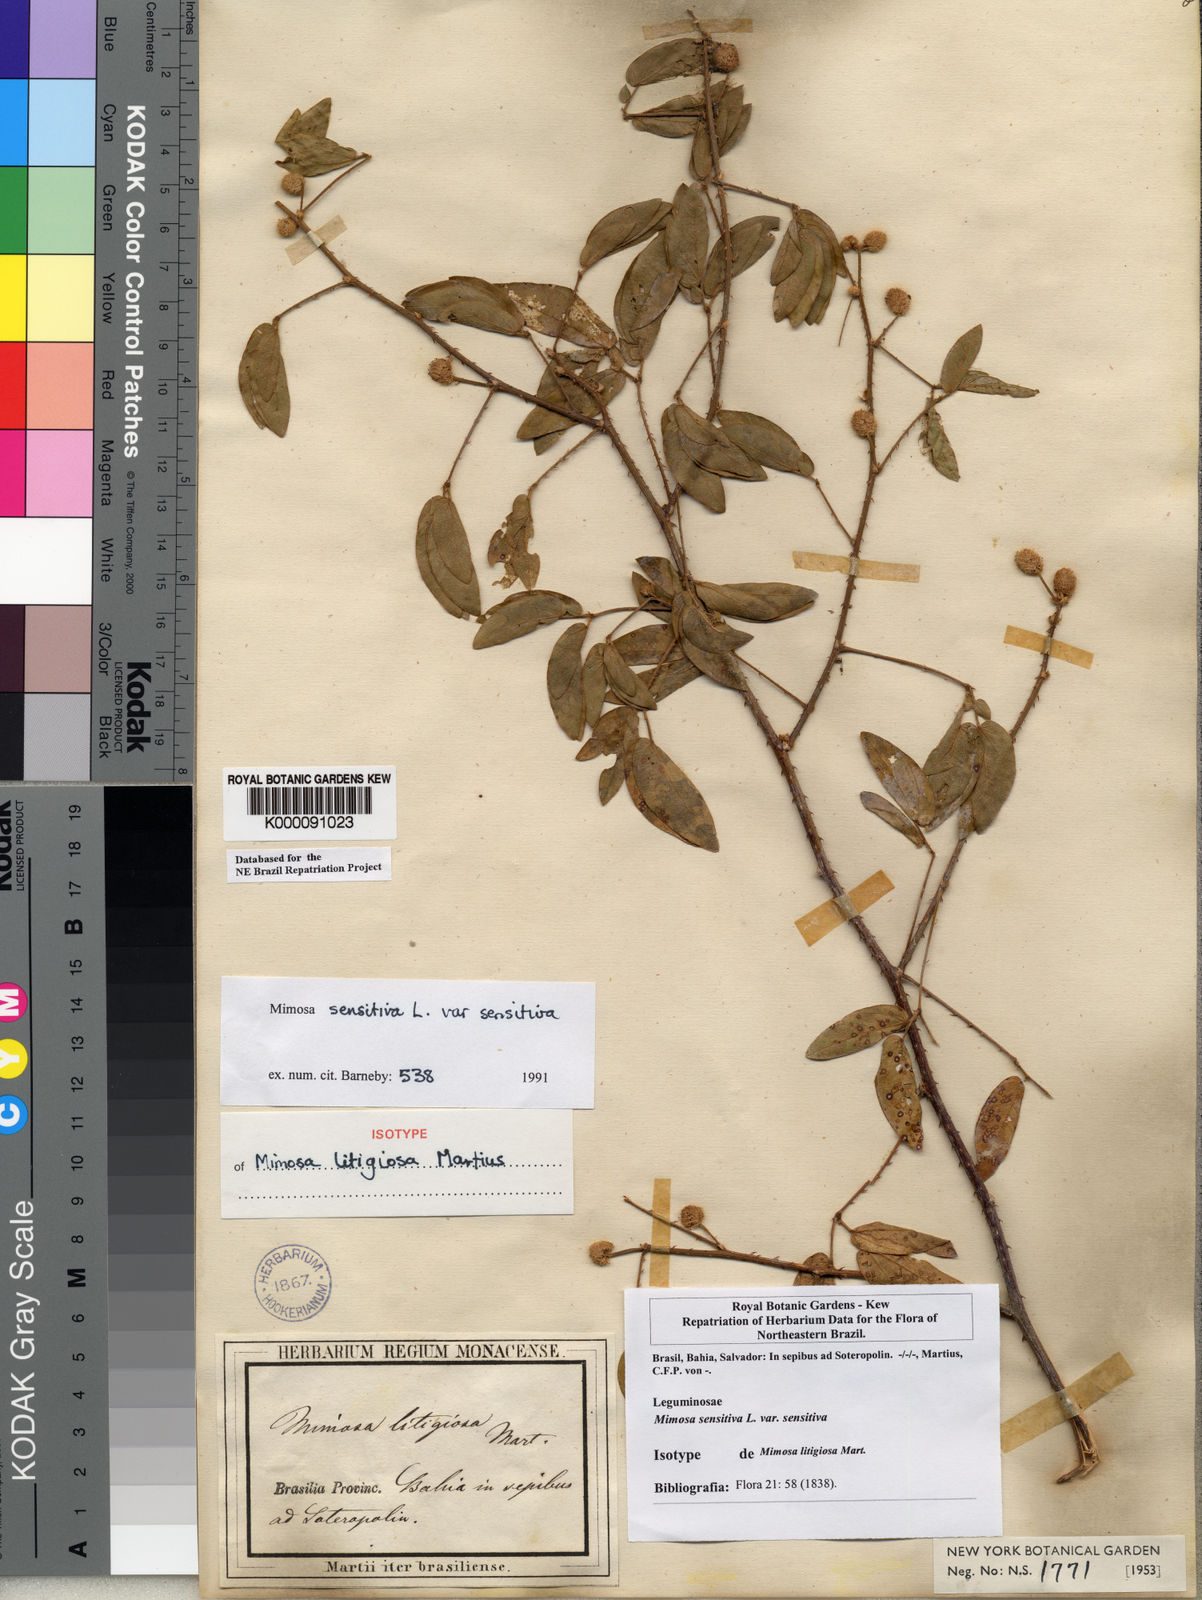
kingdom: Plantae
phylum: Tracheophyta
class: Magnoliopsida
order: Fabales
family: Fabaceae
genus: Mimosa
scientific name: Mimosa sensitiva
